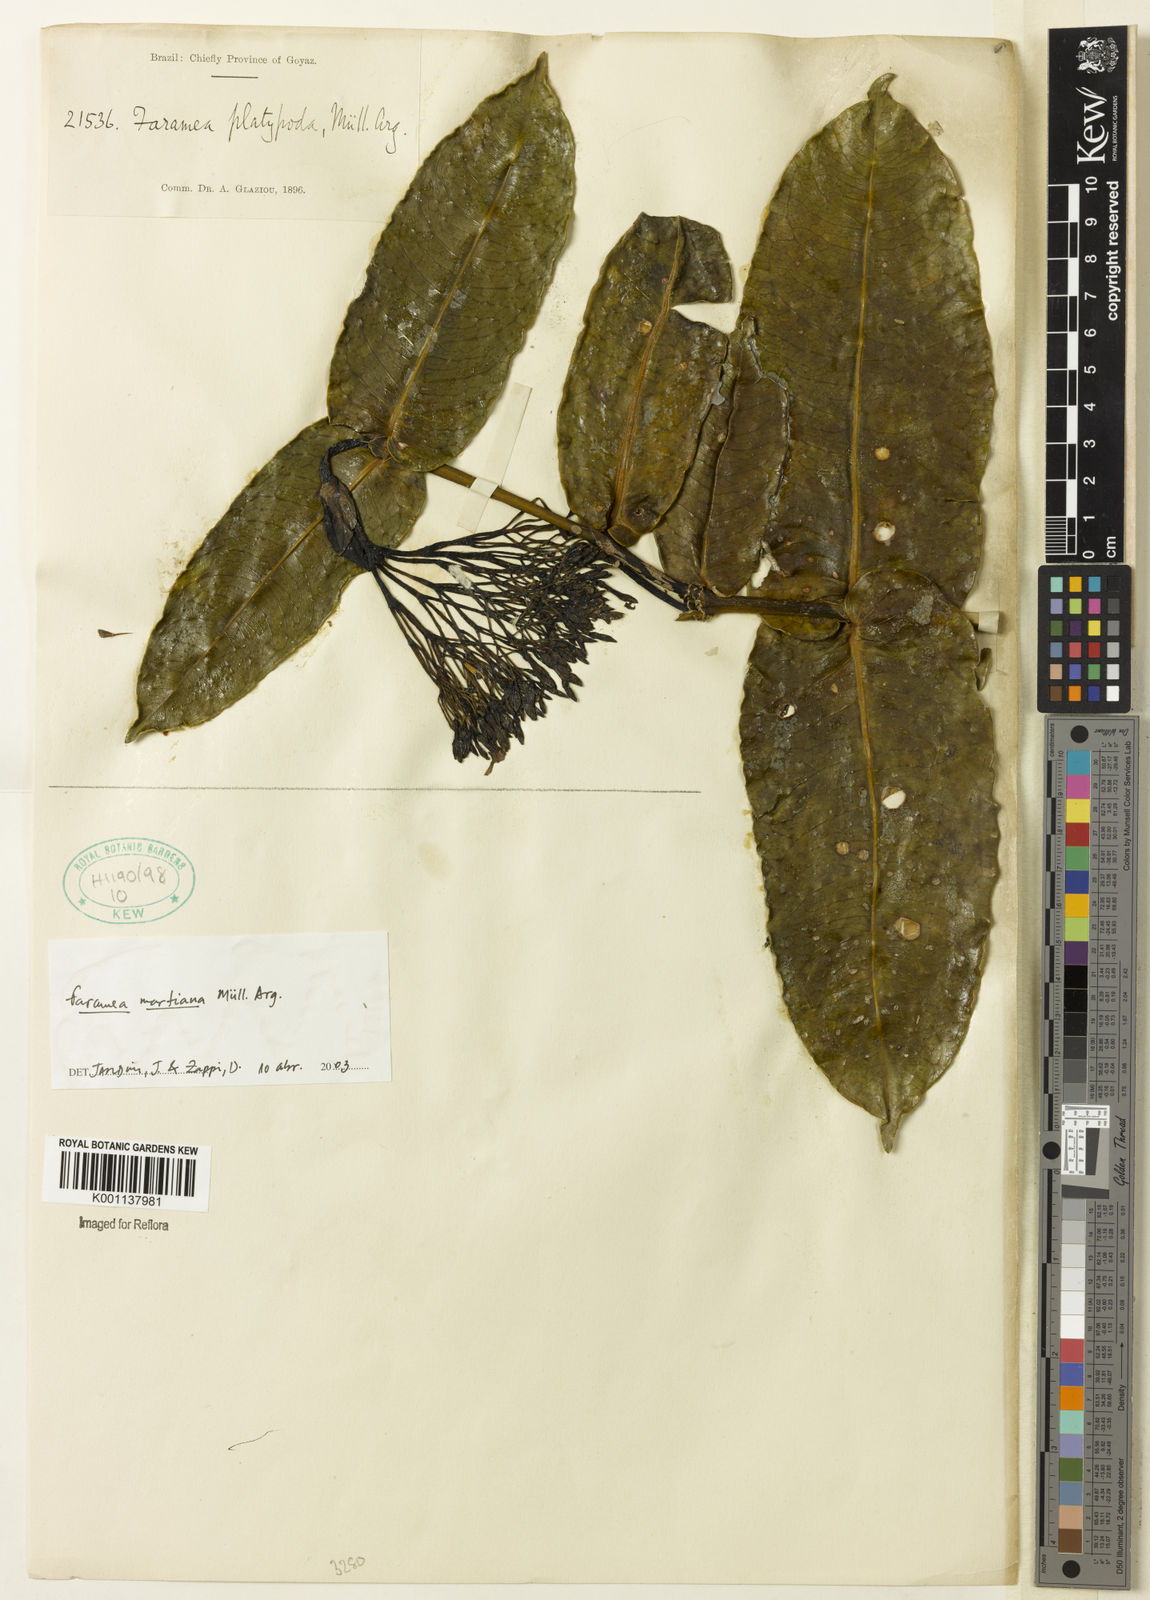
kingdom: Plantae
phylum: Tracheophyta
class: Magnoliopsida
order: Gentianales
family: Rubiaceae
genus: Faramea
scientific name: Faramea
